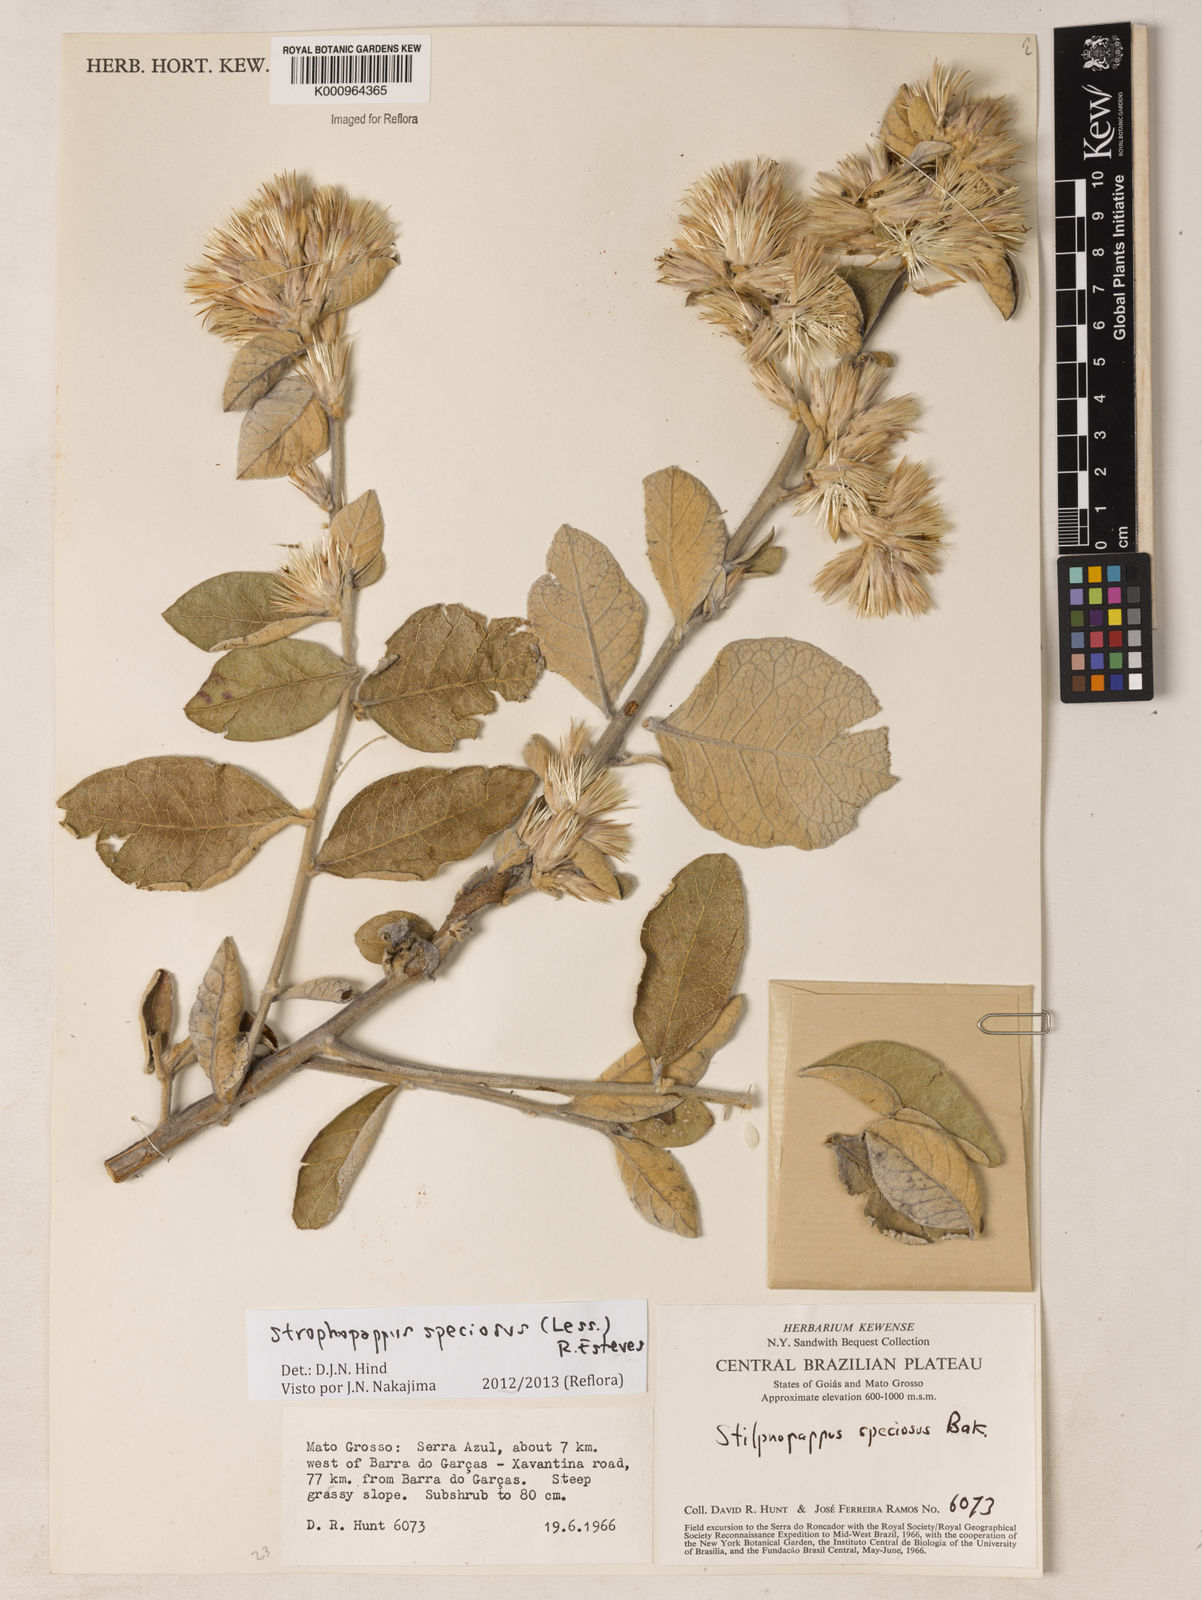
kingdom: Plantae
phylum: Tracheophyta
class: Magnoliopsida
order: Asterales
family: Asteraceae
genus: Stilpnopappus
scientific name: Stilpnopappus speciosus
